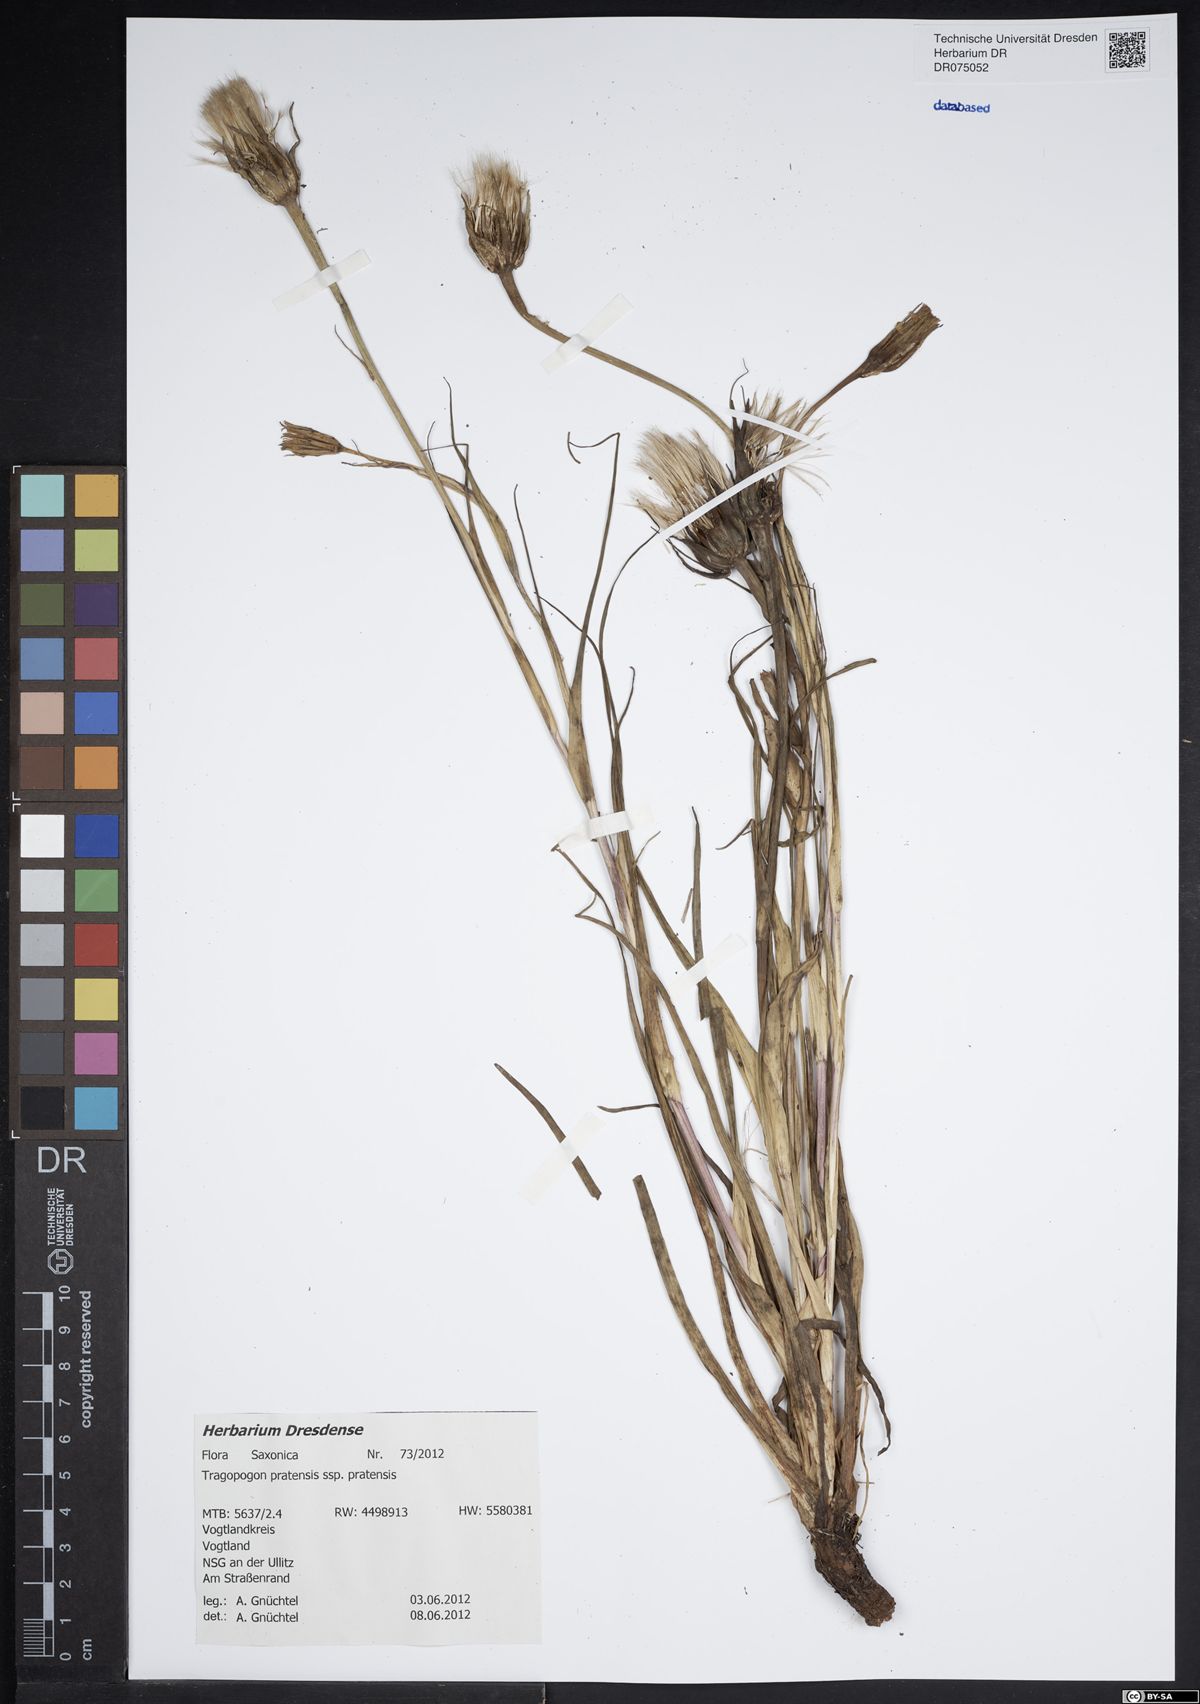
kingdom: Plantae
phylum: Tracheophyta
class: Magnoliopsida
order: Asterales
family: Asteraceae
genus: Tragopogon
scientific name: Tragopogon pratensis
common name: Goat's-beard
